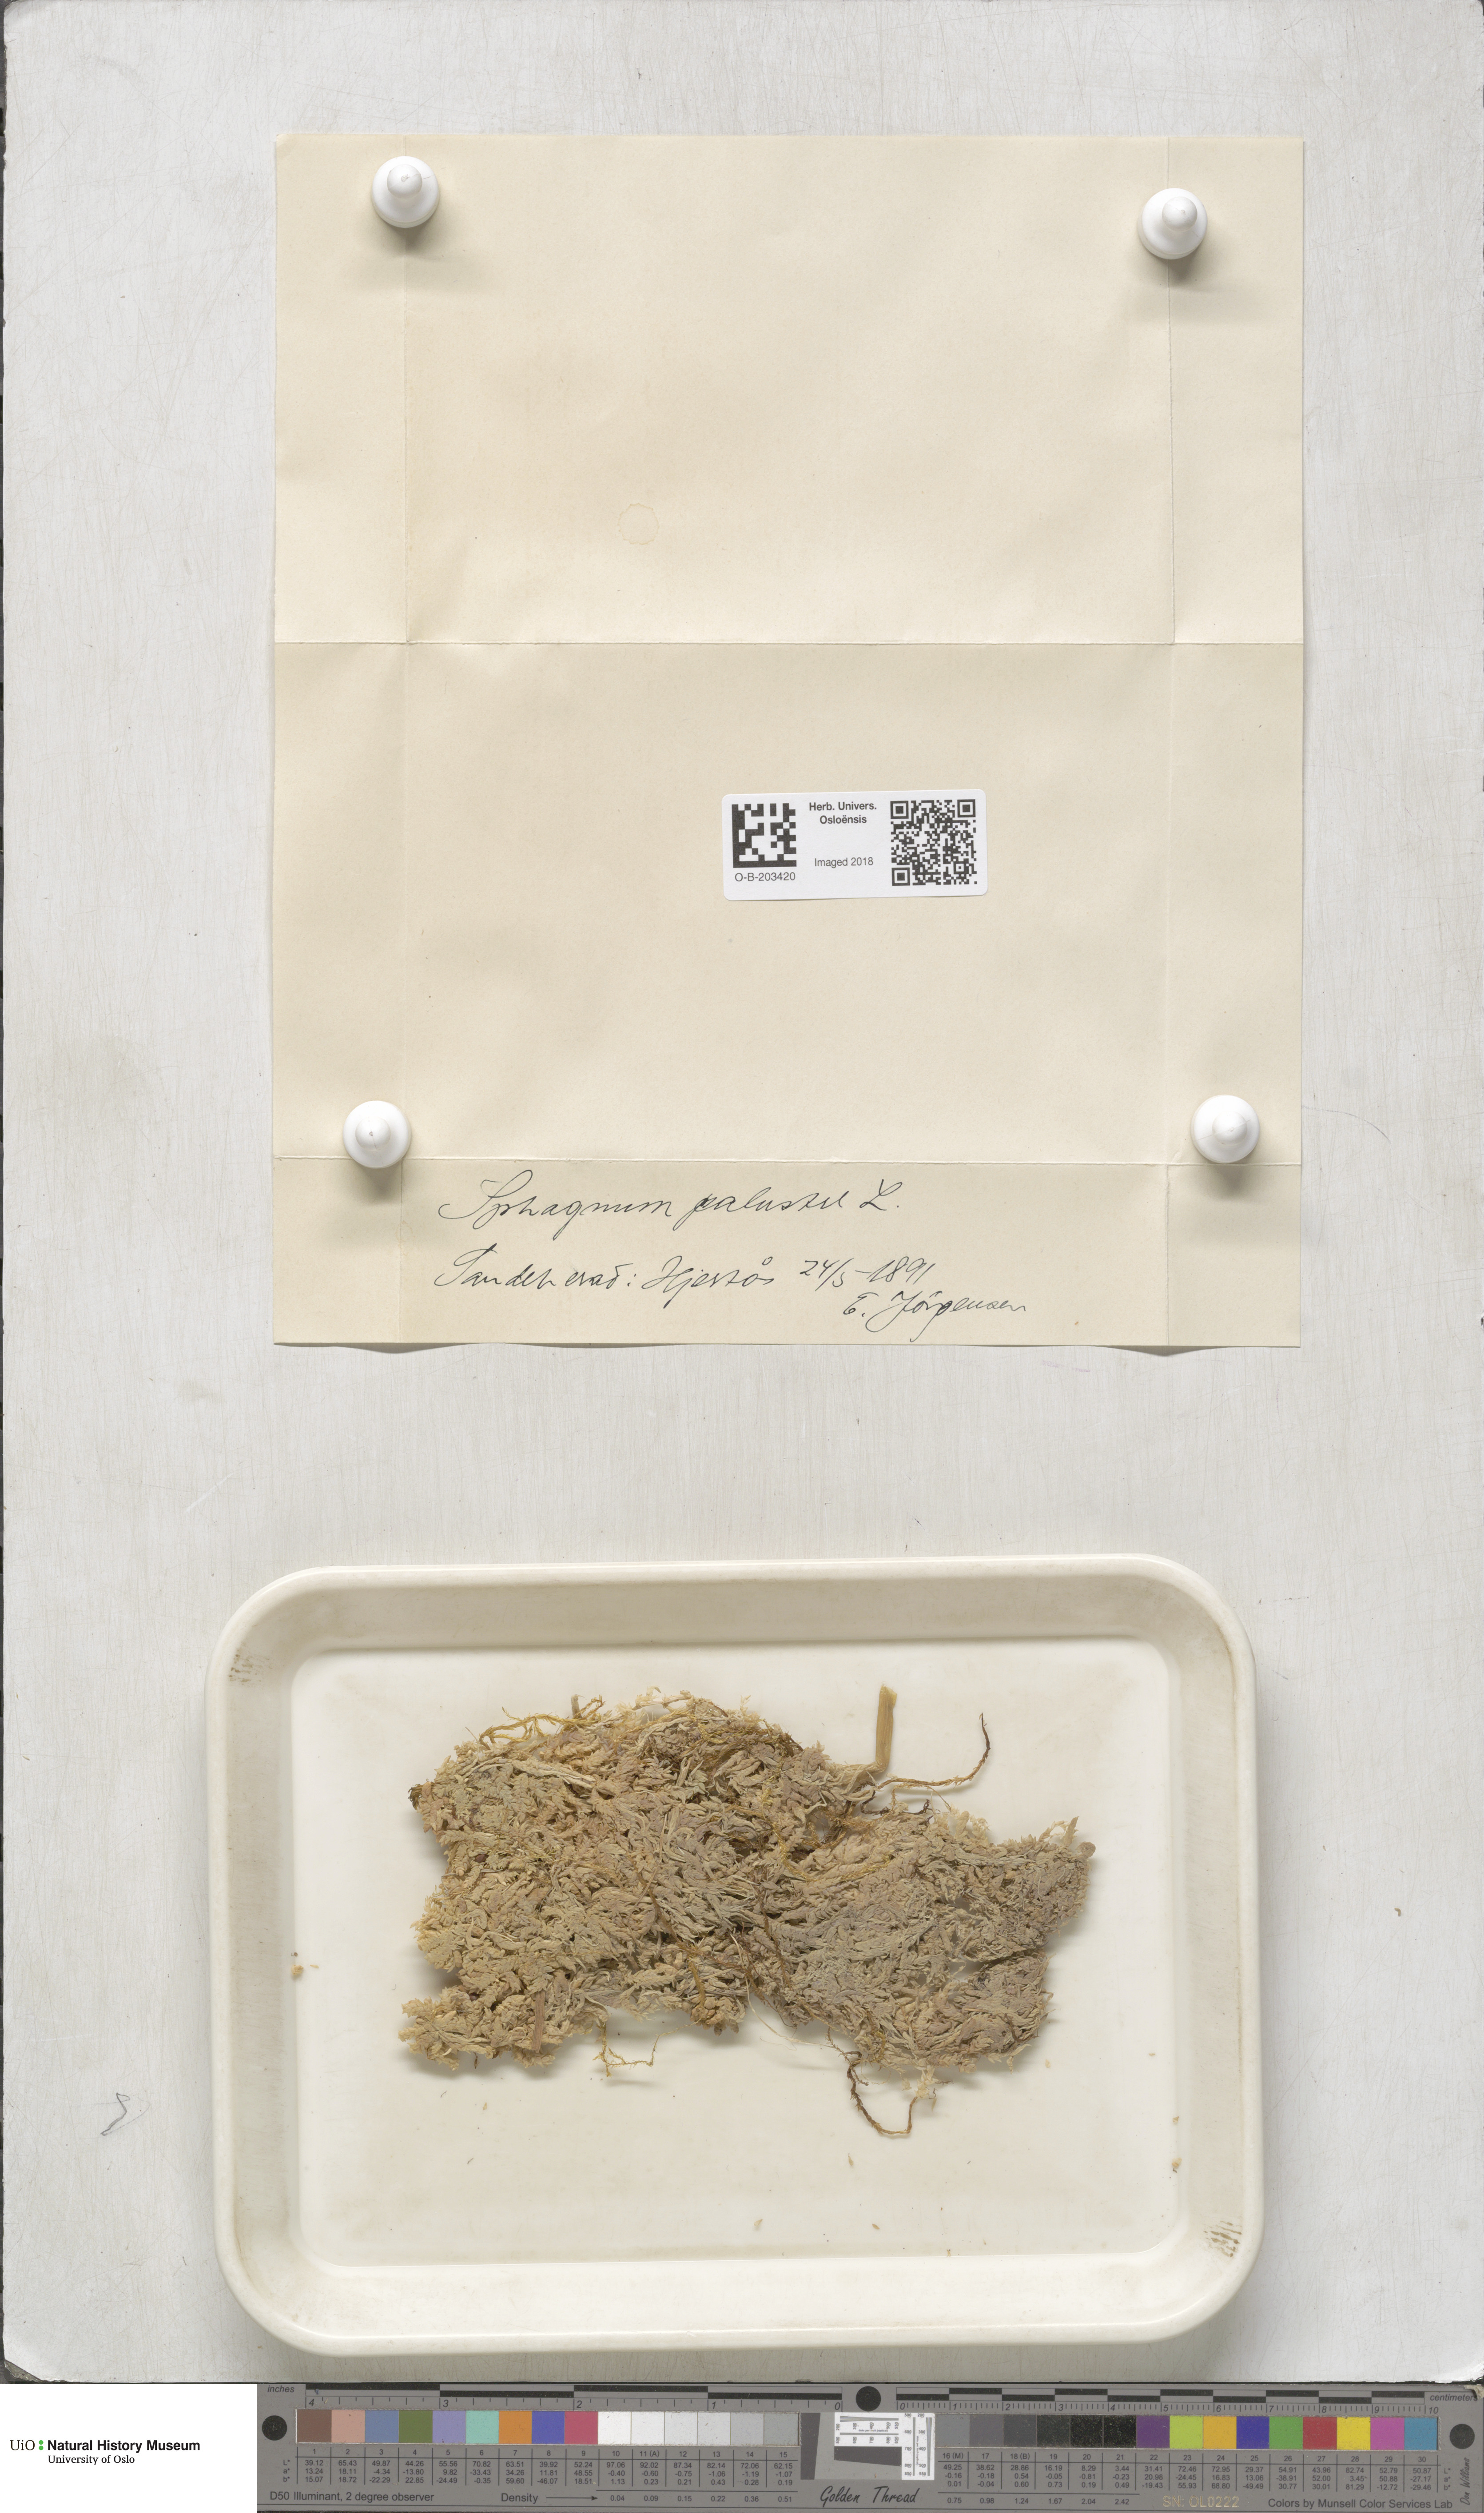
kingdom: Plantae
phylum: Bryophyta
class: Sphagnopsida
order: Sphagnales
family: Sphagnaceae
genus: Sphagnum
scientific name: Sphagnum palustre
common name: Blunt-leaved bog-moss
